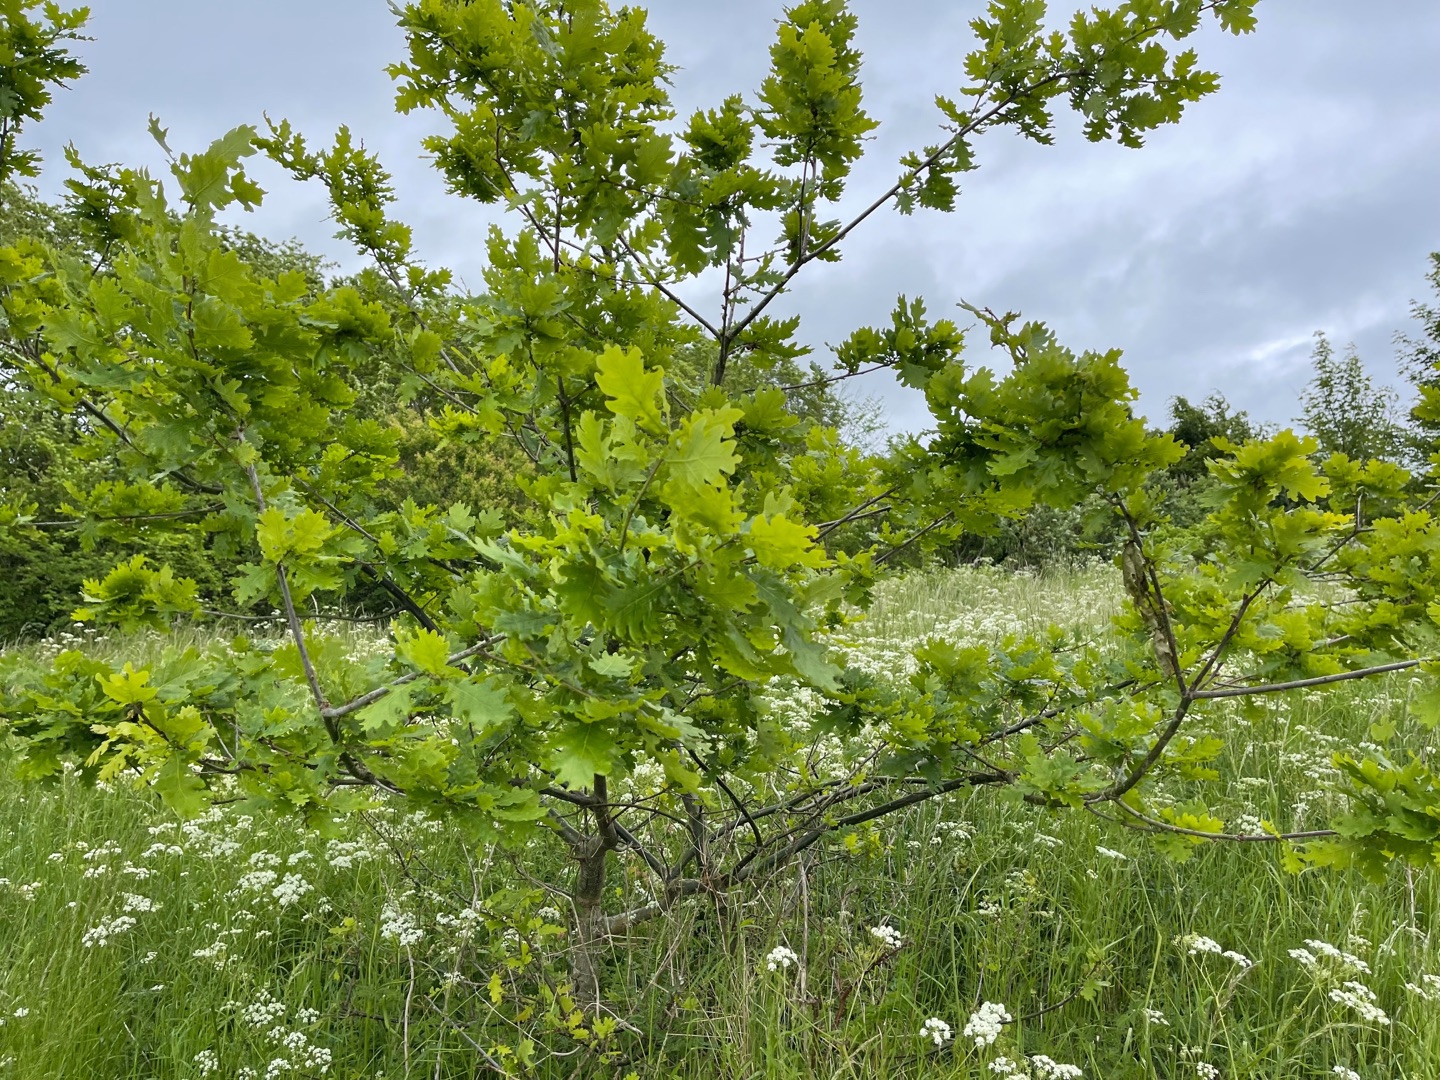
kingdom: Plantae
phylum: Tracheophyta
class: Magnoliopsida
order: Fagales
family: Fagaceae
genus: Quercus
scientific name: Quercus robur
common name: Stilk-eg/almindelig eg
